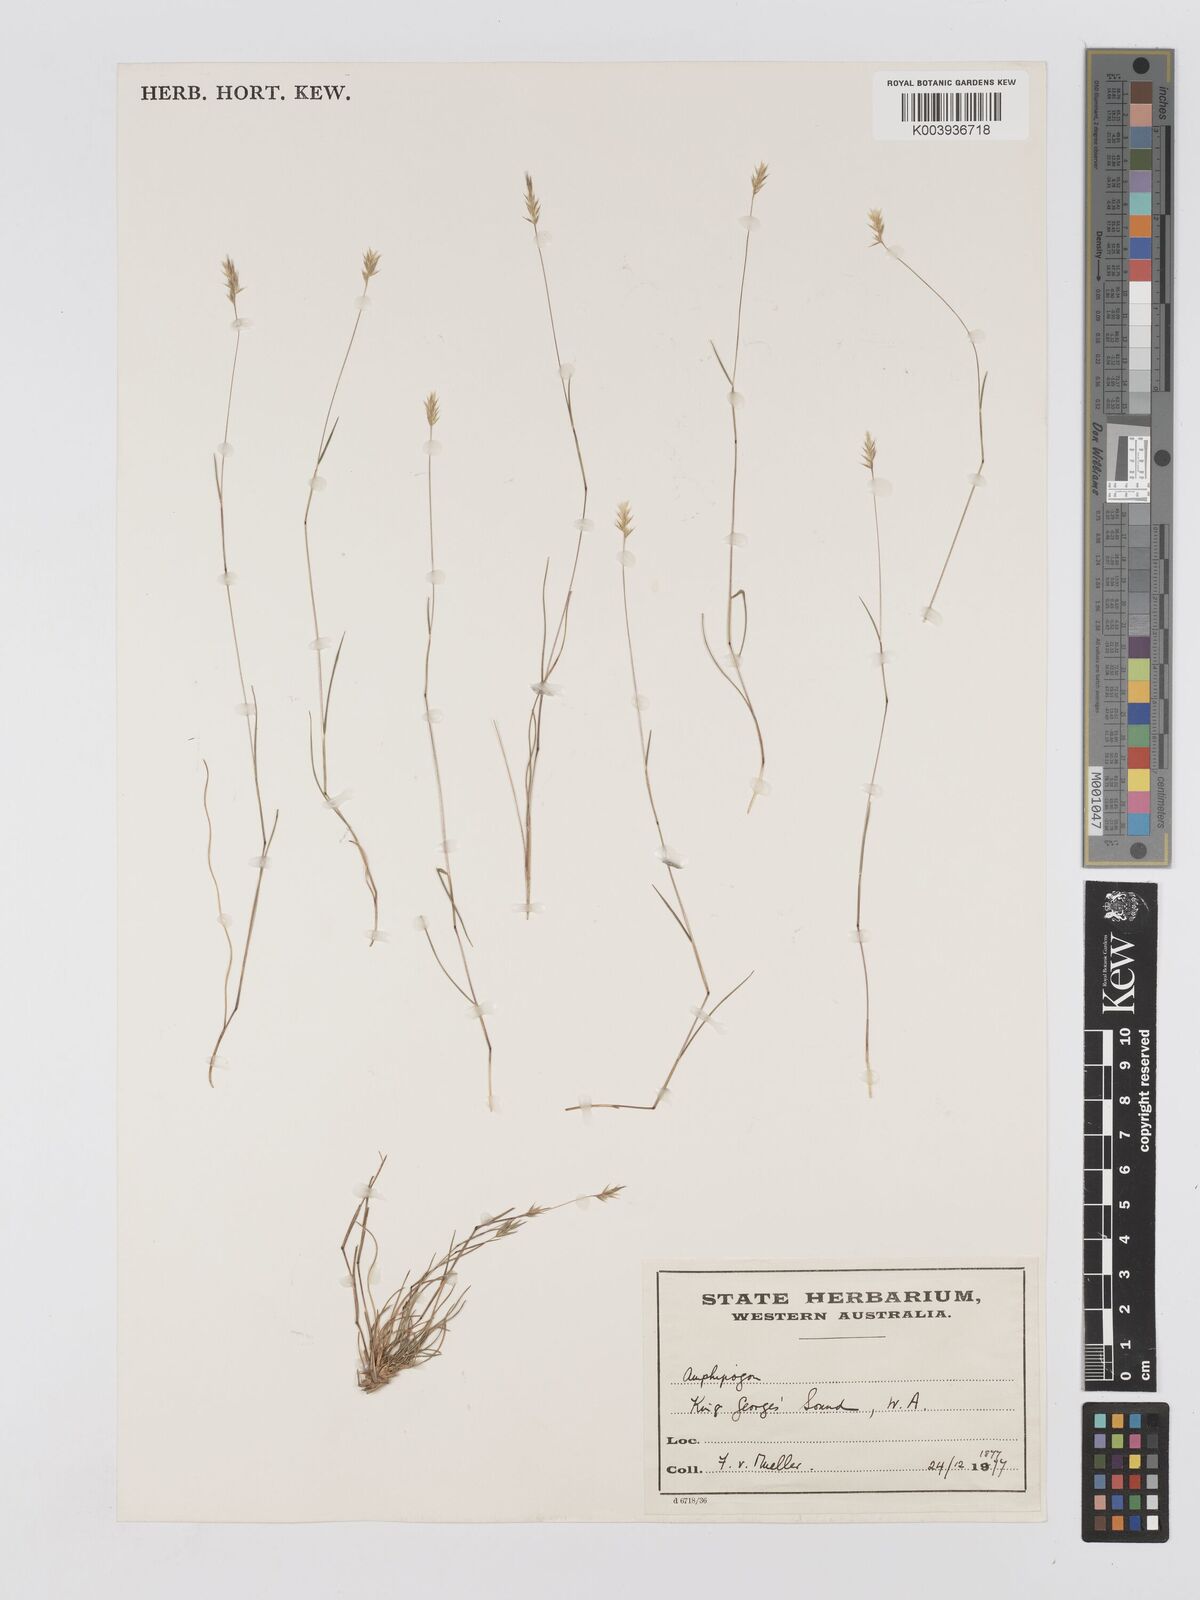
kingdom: Plantae
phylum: Tracheophyta
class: Liliopsida
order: Poales
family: Poaceae
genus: Amphipogon
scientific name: Amphipogon debilis
